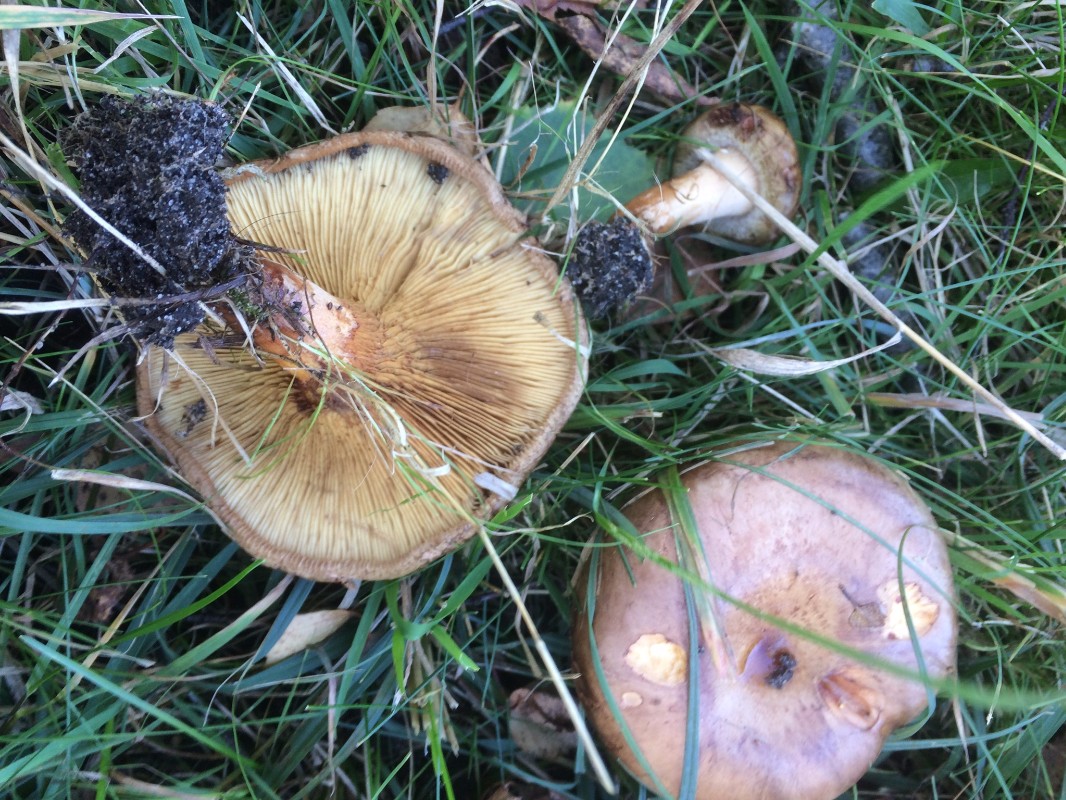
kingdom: Fungi
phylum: Basidiomycota
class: Agaricomycetes
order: Boletales
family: Paxillaceae
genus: Paxillus
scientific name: Paxillus involutus
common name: almindelig netbladhat
